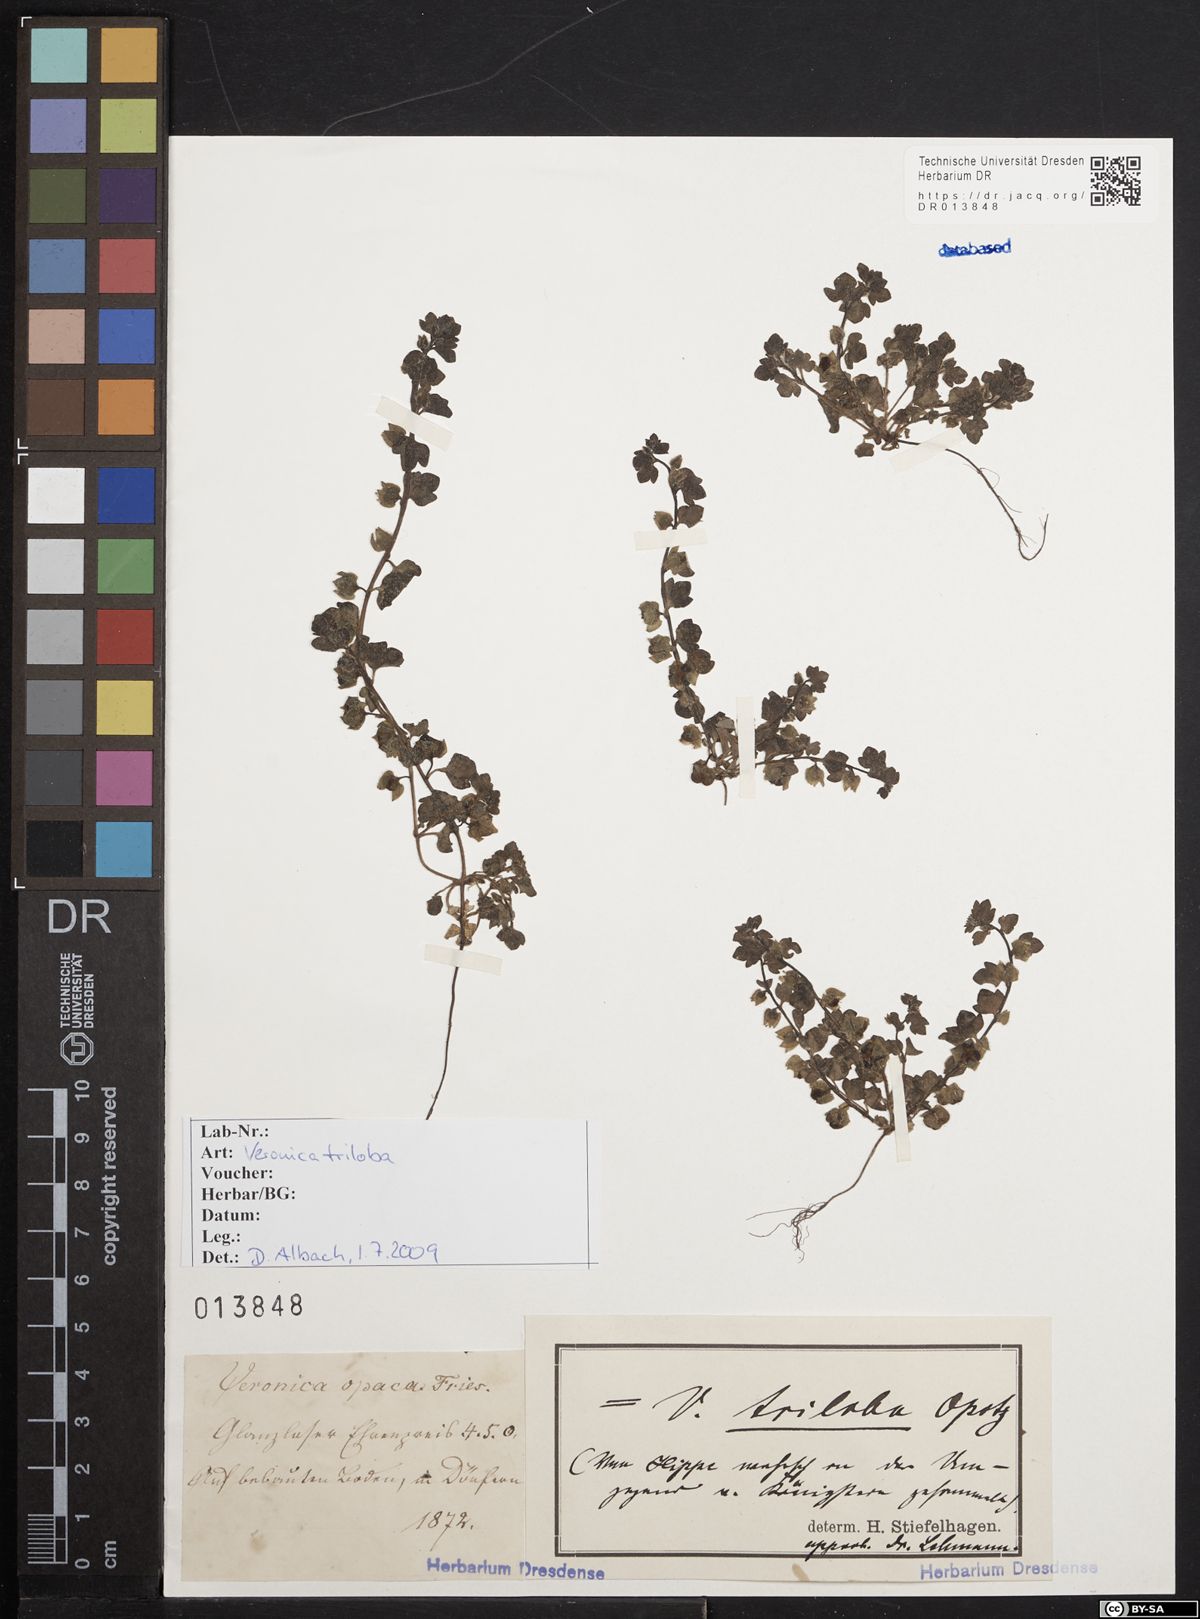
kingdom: Plantae
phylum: Tracheophyta
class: Magnoliopsida
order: Lamiales
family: Plantaginaceae
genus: Veronica
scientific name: Veronica triloba
